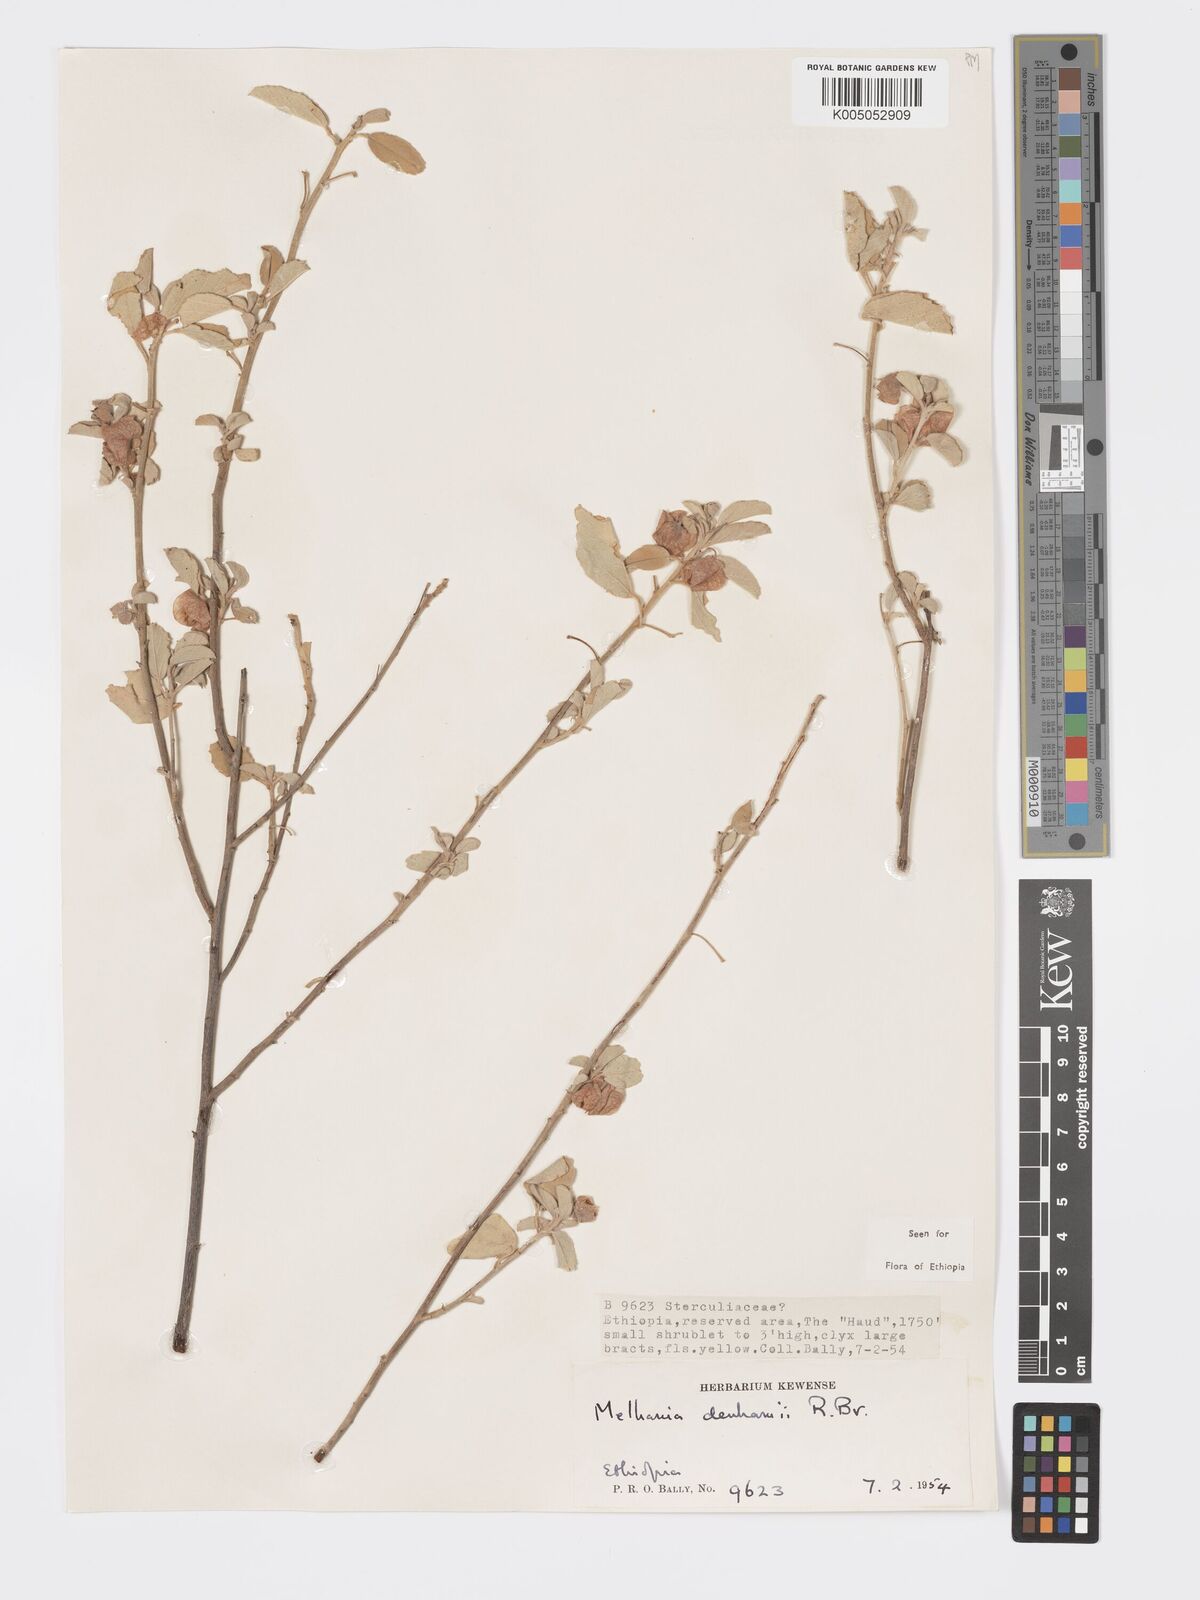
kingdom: Plantae
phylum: Tracheophyta
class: Magnoliopsida
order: Malvales
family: Malvaceae
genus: Melhania
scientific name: Melhania denhamii
